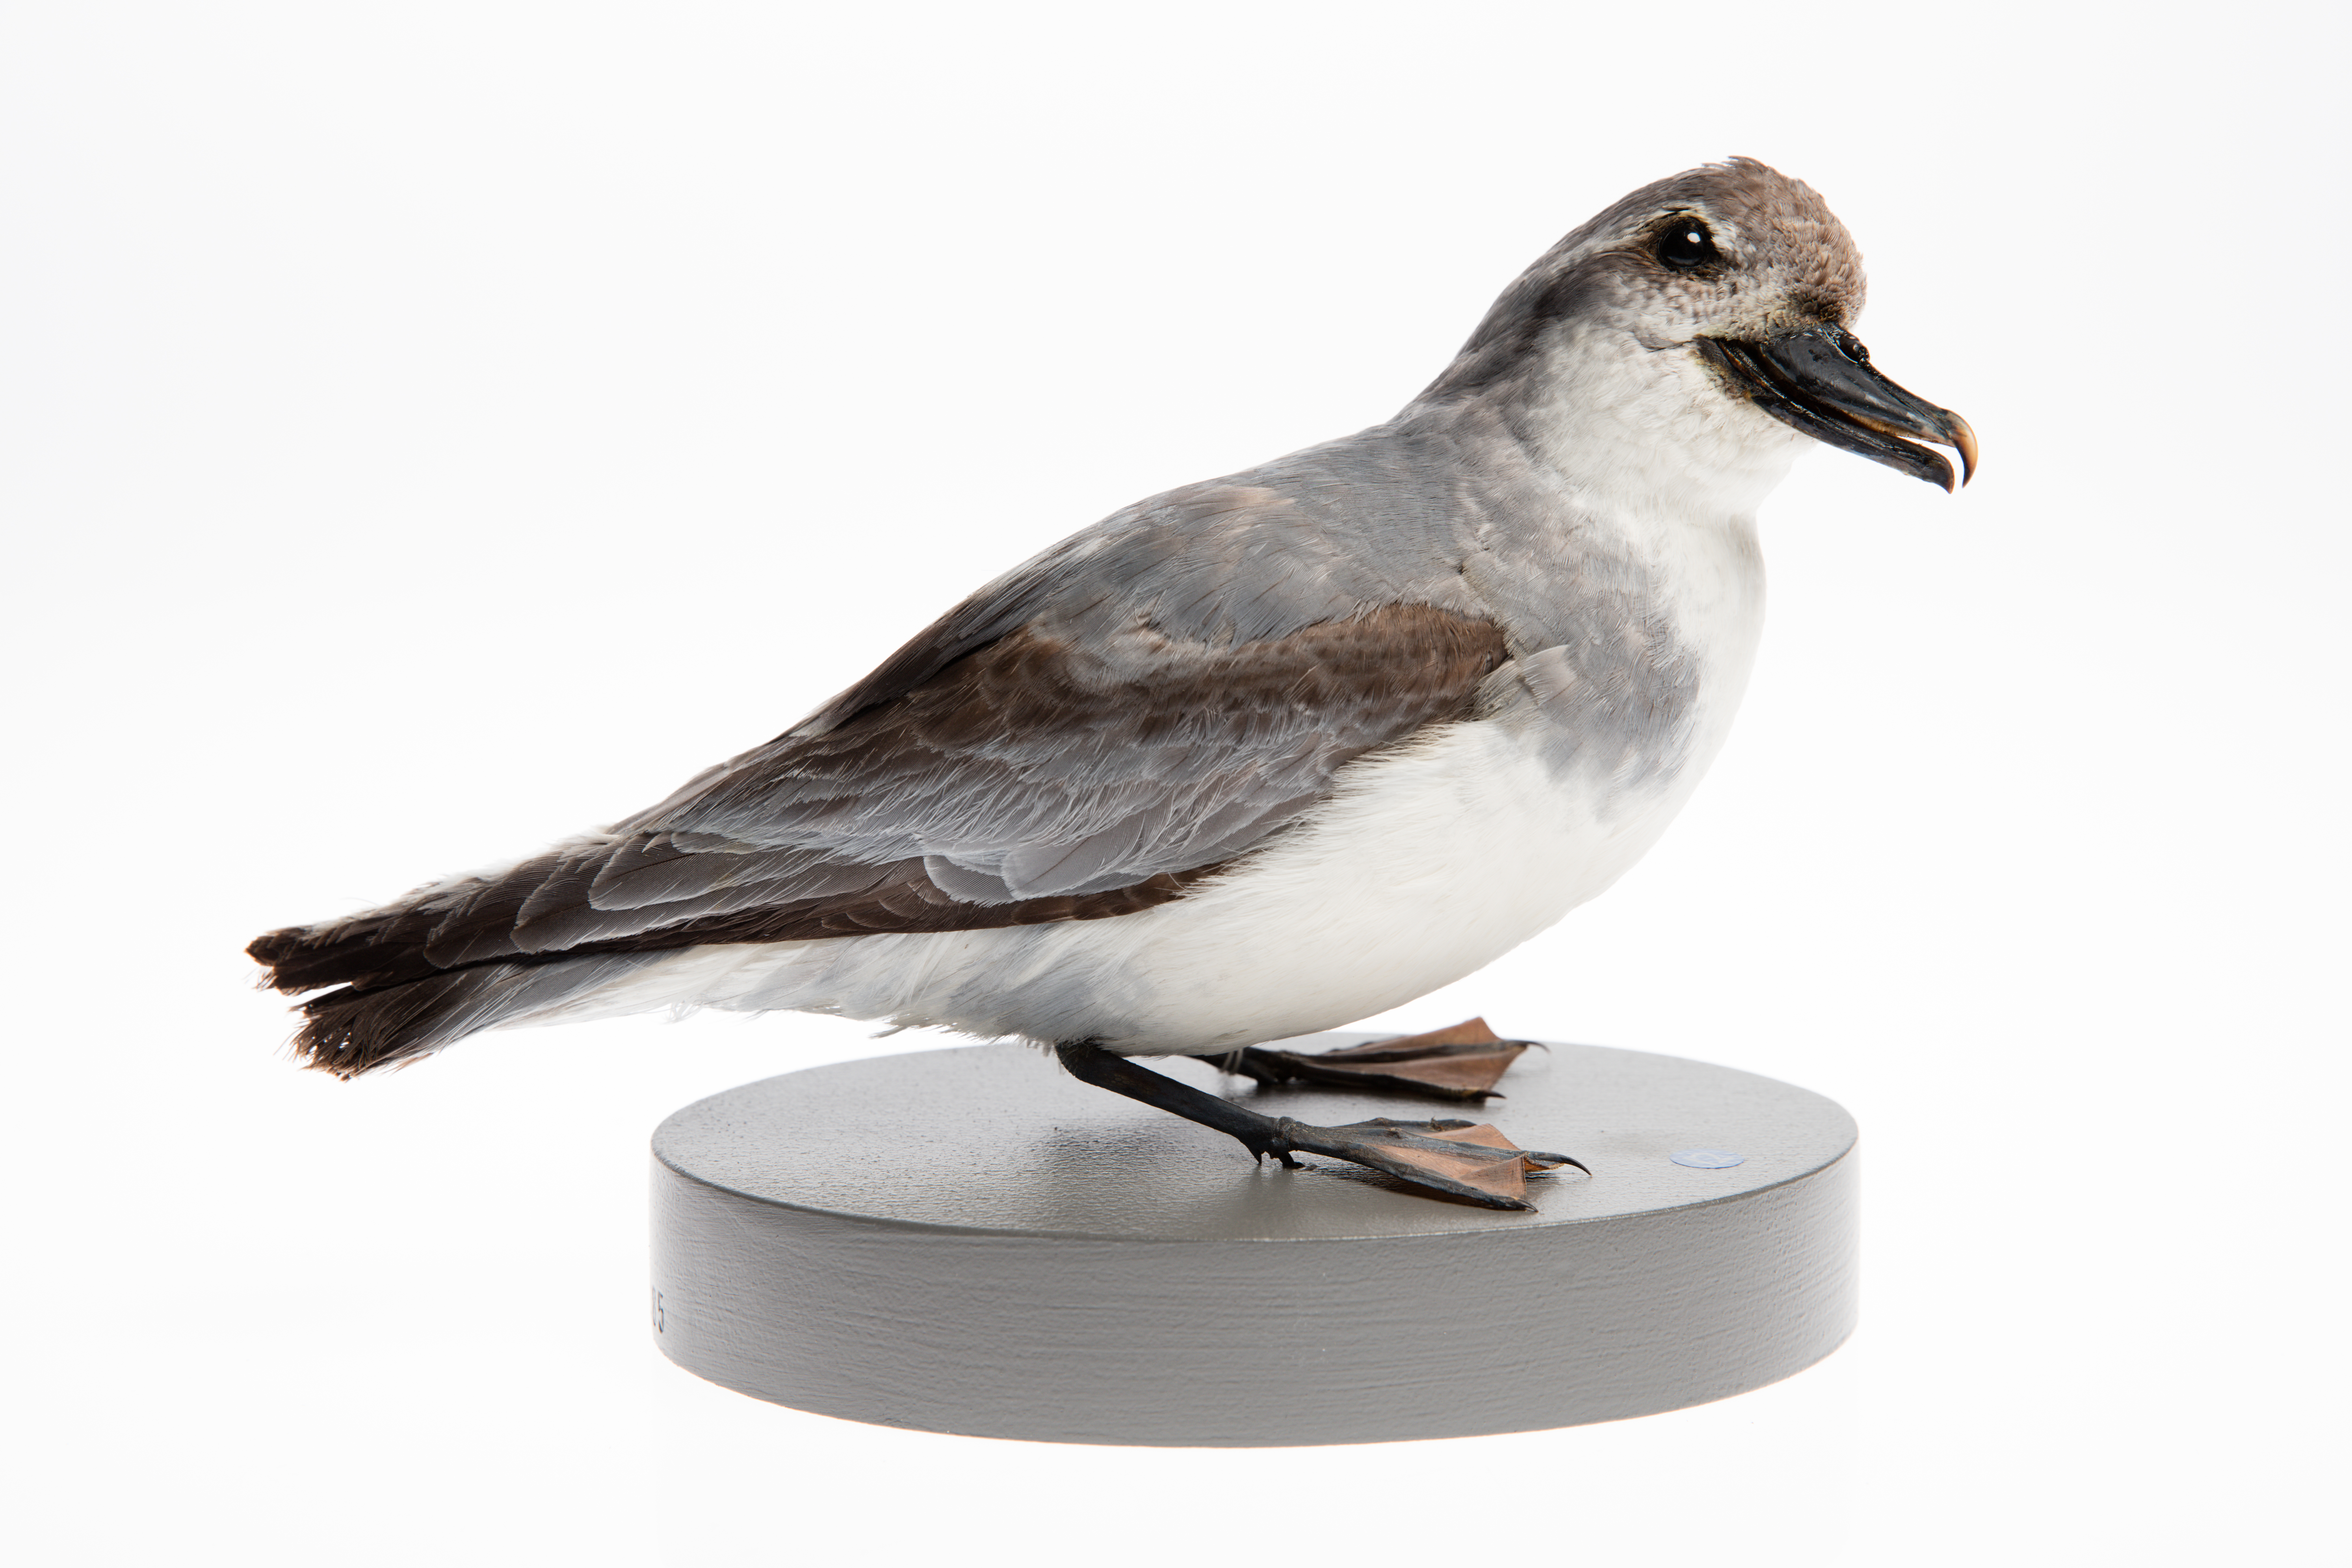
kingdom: Animalia
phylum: Chordata
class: Aves
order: Procellariiformes
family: Procellariidae
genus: Pachyptila
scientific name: Pachyptila vittata
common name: Broad-billed prion
